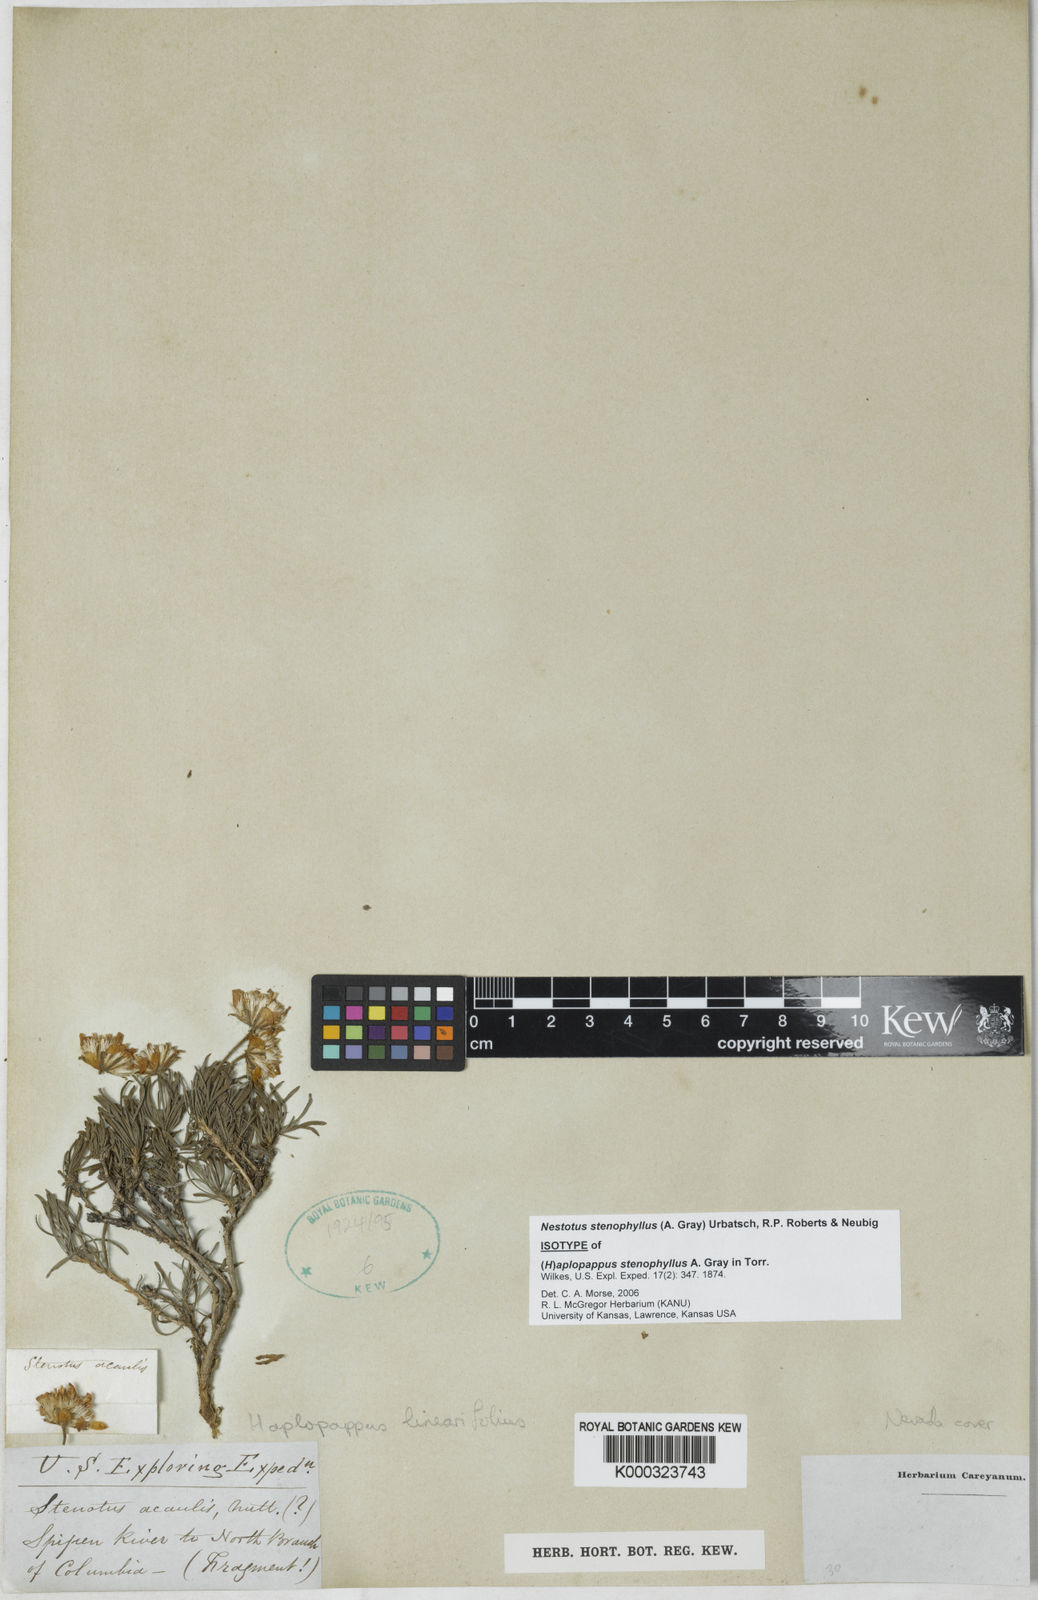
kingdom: Plantae
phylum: Tracheophyta
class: Magnoliopsida
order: Asterales
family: Asteraceae
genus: Nestotus
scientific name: Nestotus stenophyllus
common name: Narrow-leaf mock goldenweed
